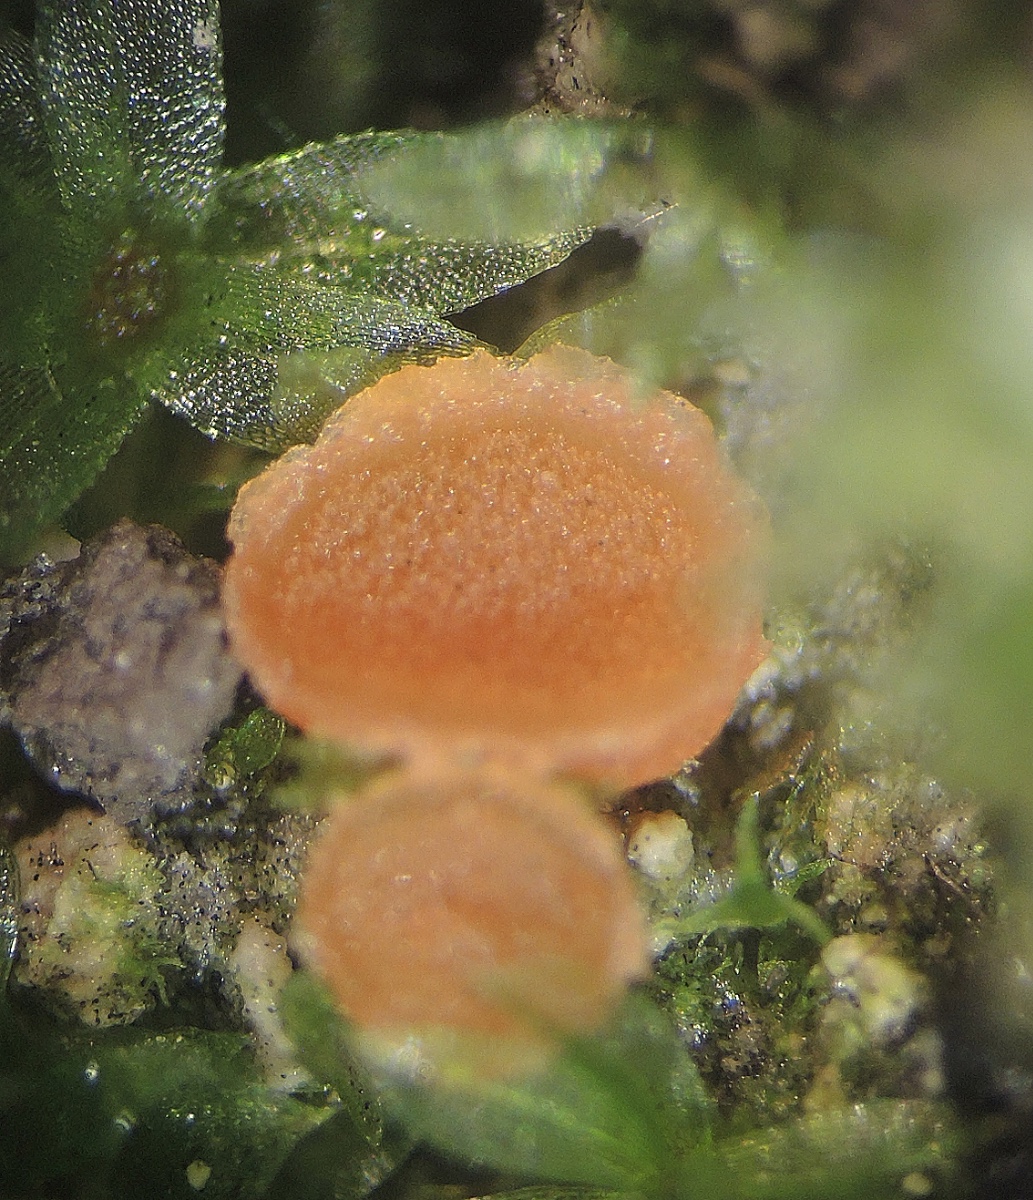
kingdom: Fungi
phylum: Ascomycota
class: Pezizomycetes
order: Pezizales
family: Pyronemataceae
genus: Lamprospora
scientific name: Lamprospora carbonicola
